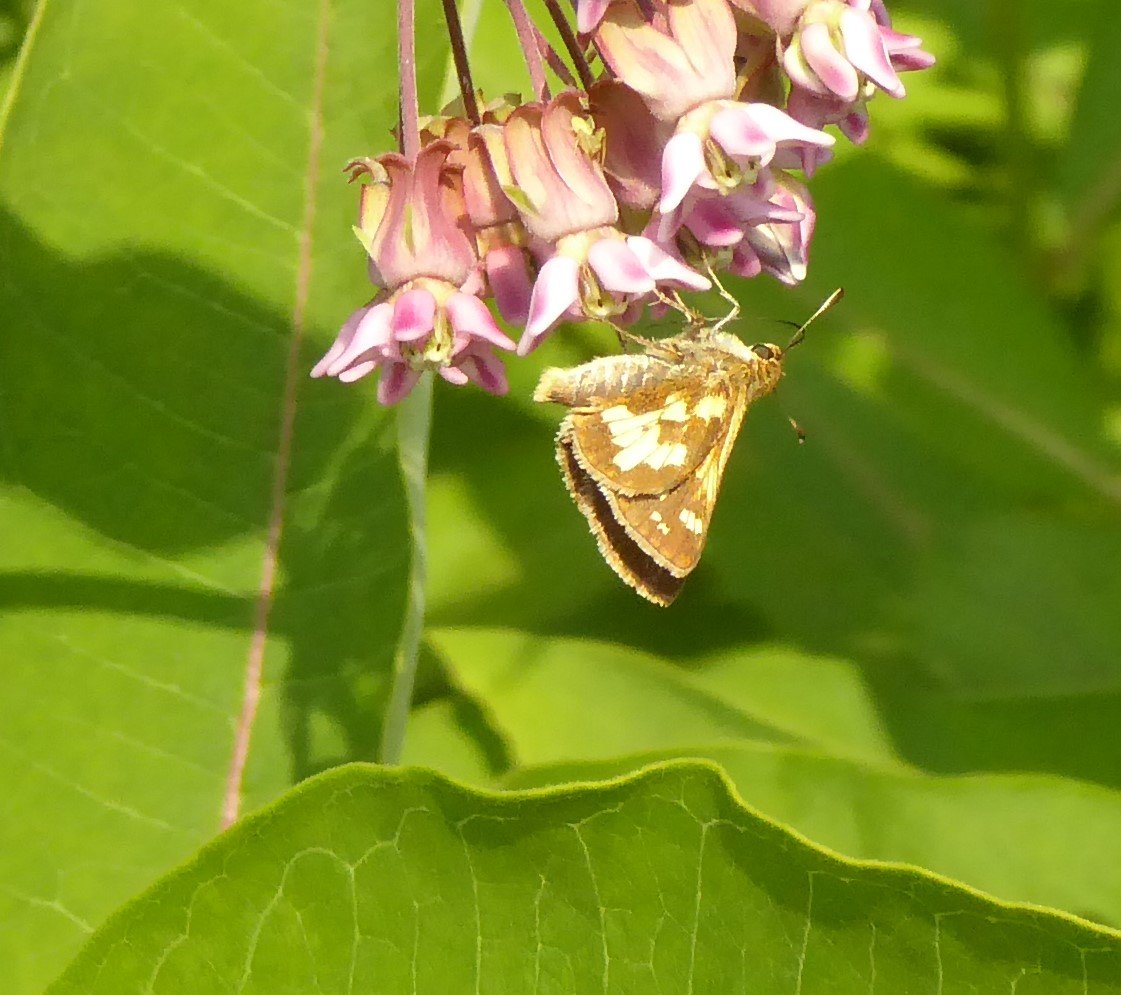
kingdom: Animalia
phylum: Arthropoda
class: Insecta
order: Lepidoptera
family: Hesperiidae
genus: Polites
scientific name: Polites coras
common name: Peck's Skipper
